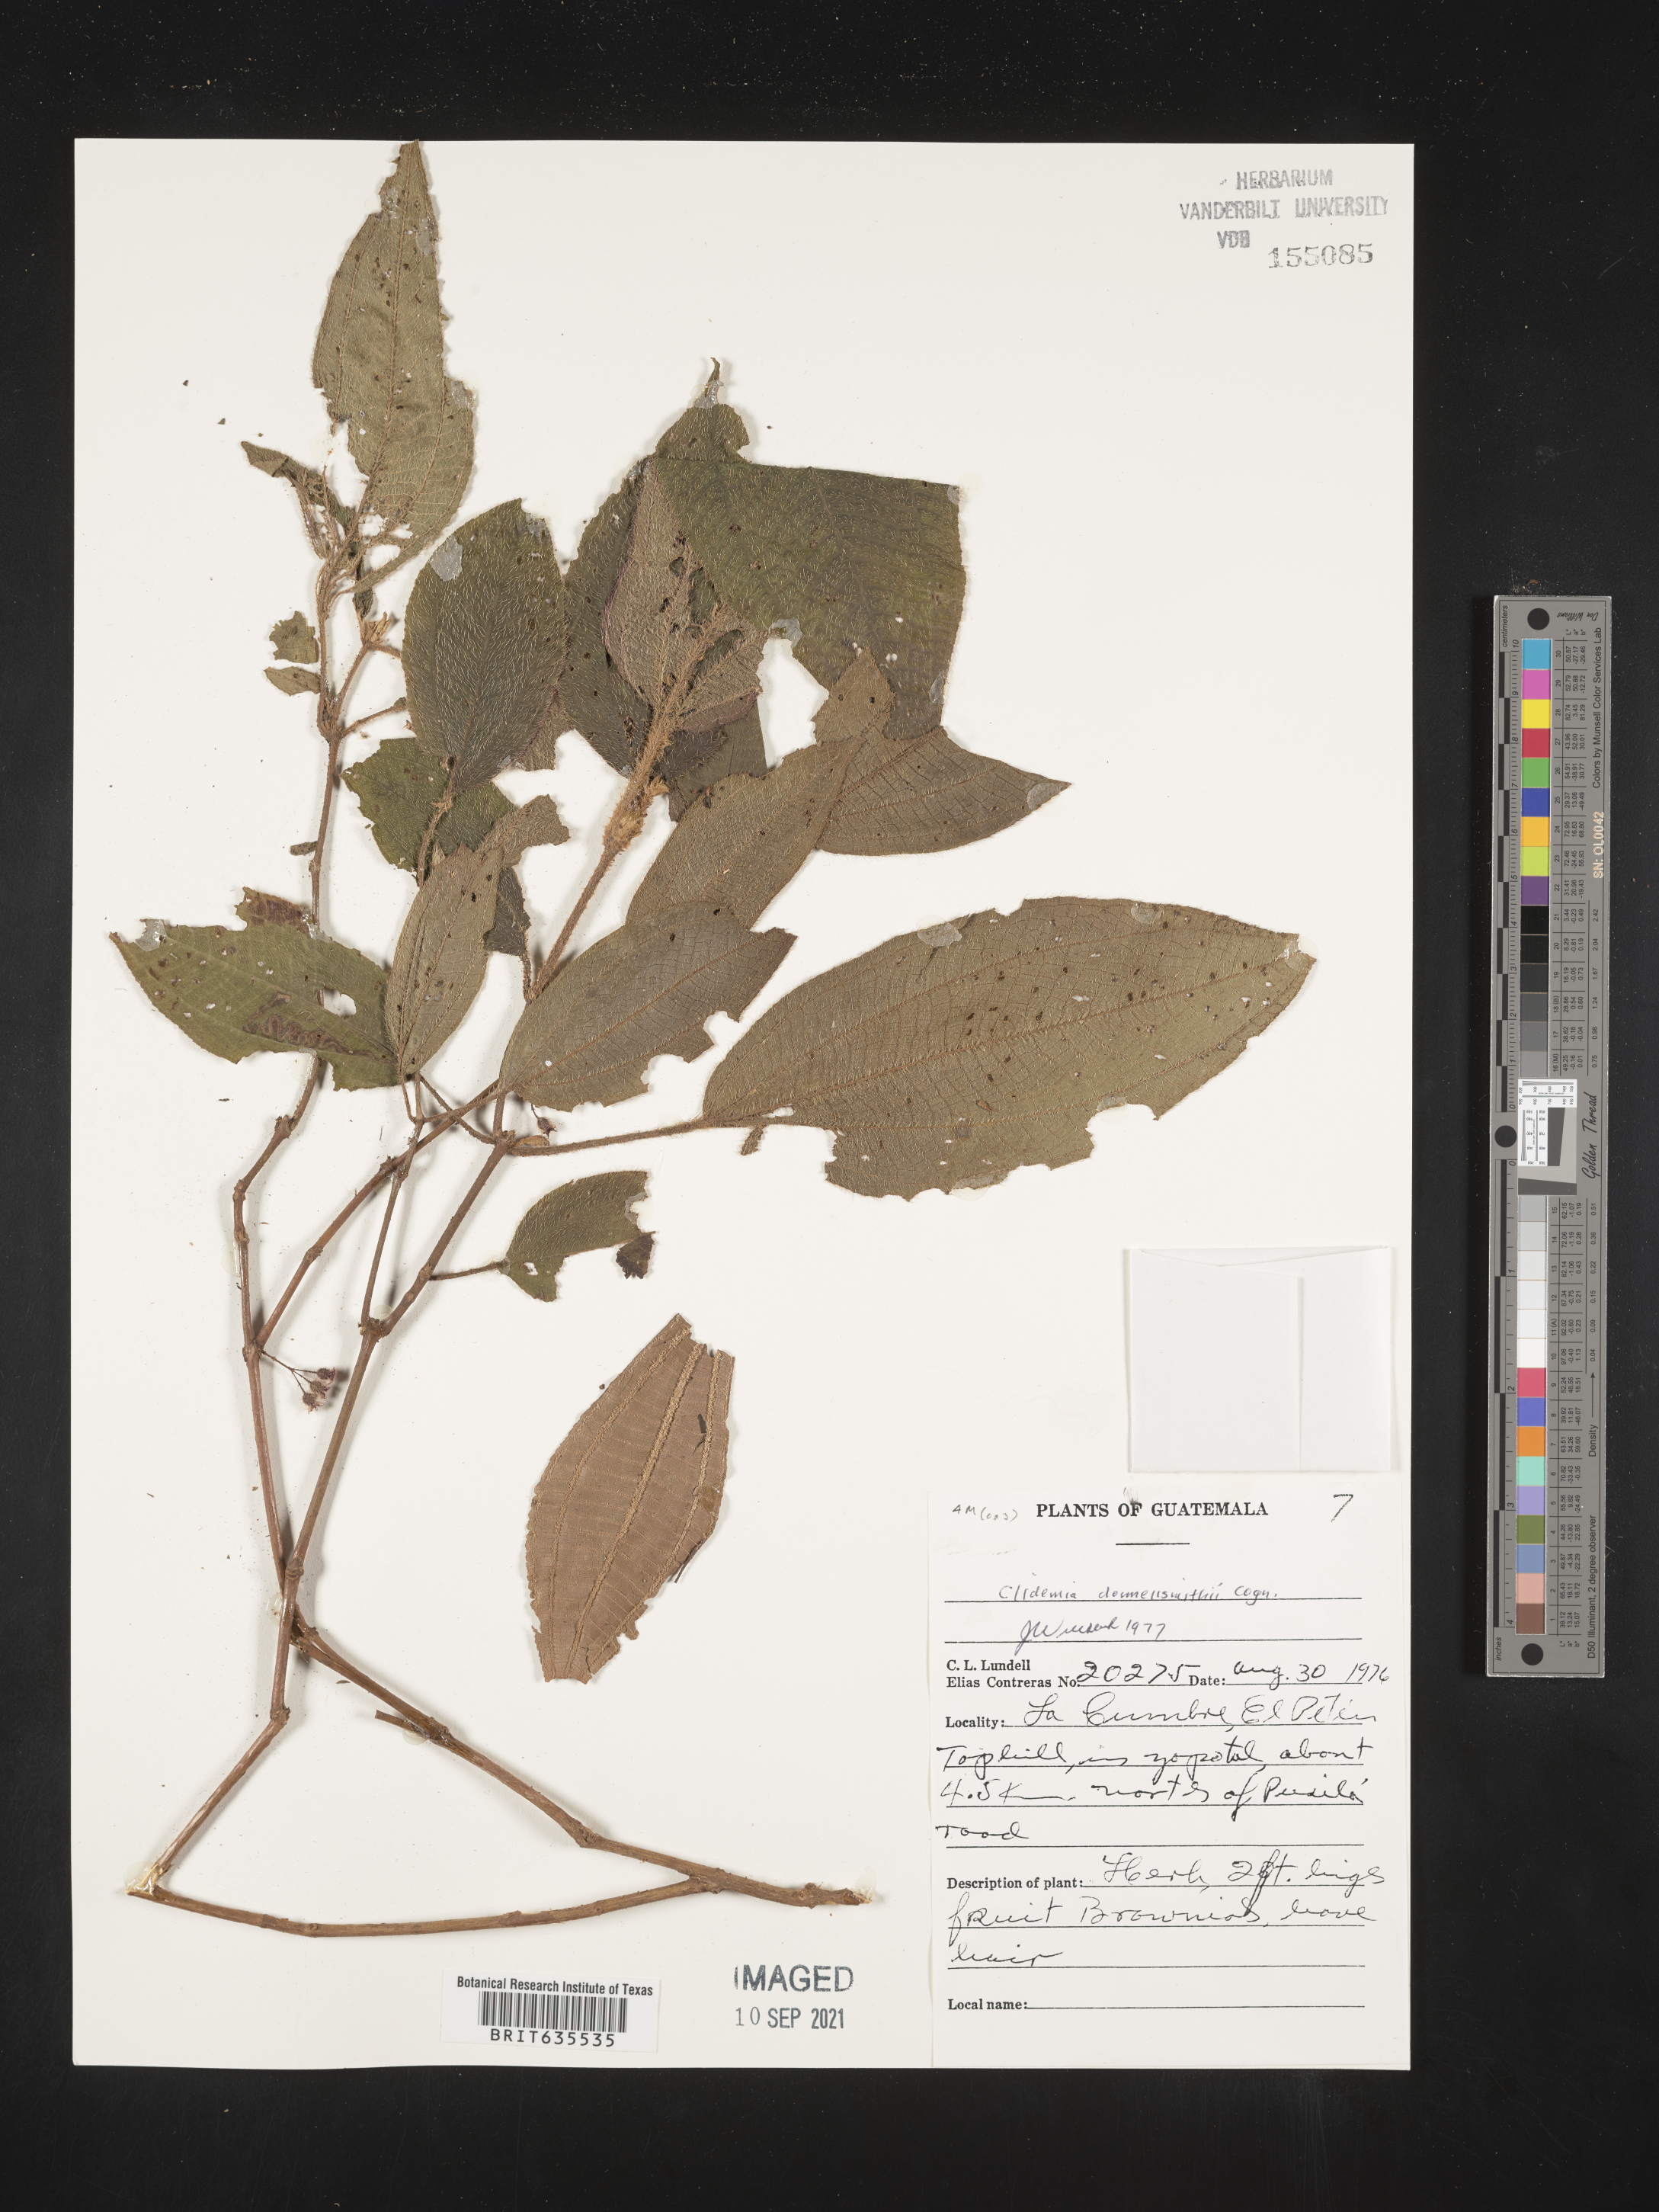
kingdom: Plantae
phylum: Tracheophyta
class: Magnoliopsida
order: Myrtales
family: Melastomataceae
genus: Miconia
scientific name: Miconia
